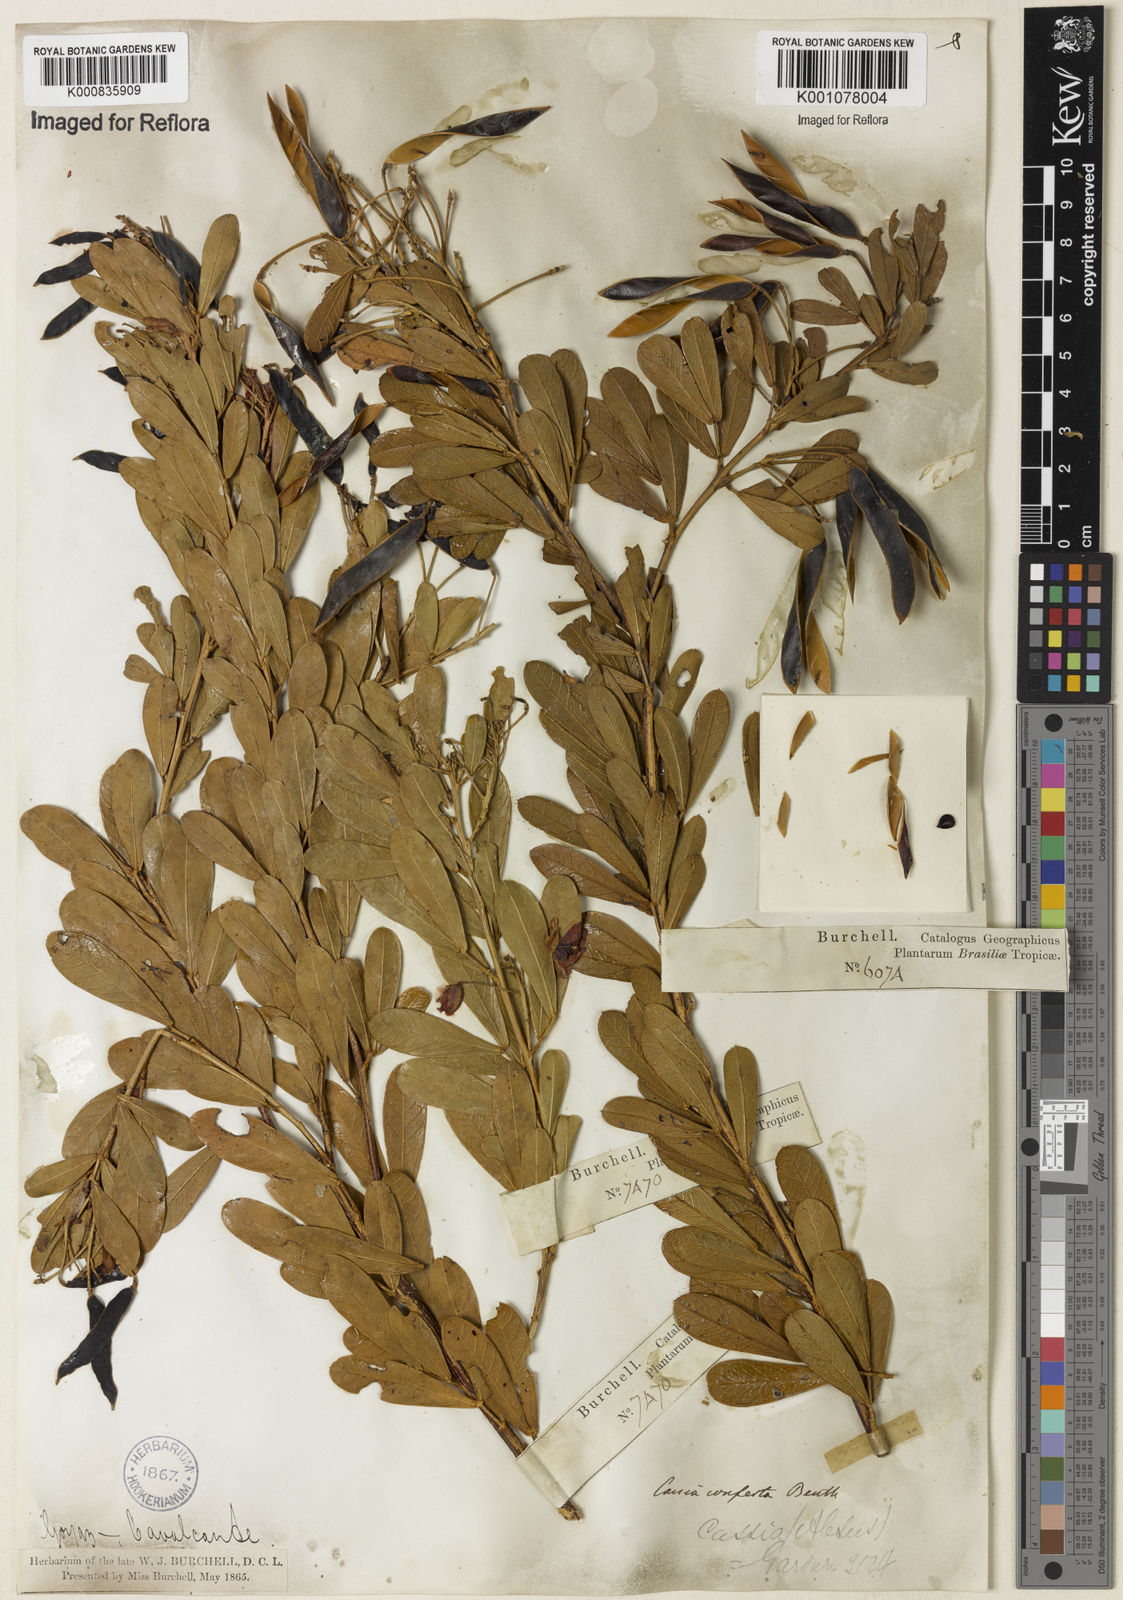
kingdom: Plantae
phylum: Tracheophyta
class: Magnoliopsida
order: Fabales
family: Fabaceae
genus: Chamaecrista
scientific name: Chamaecrista conferta
